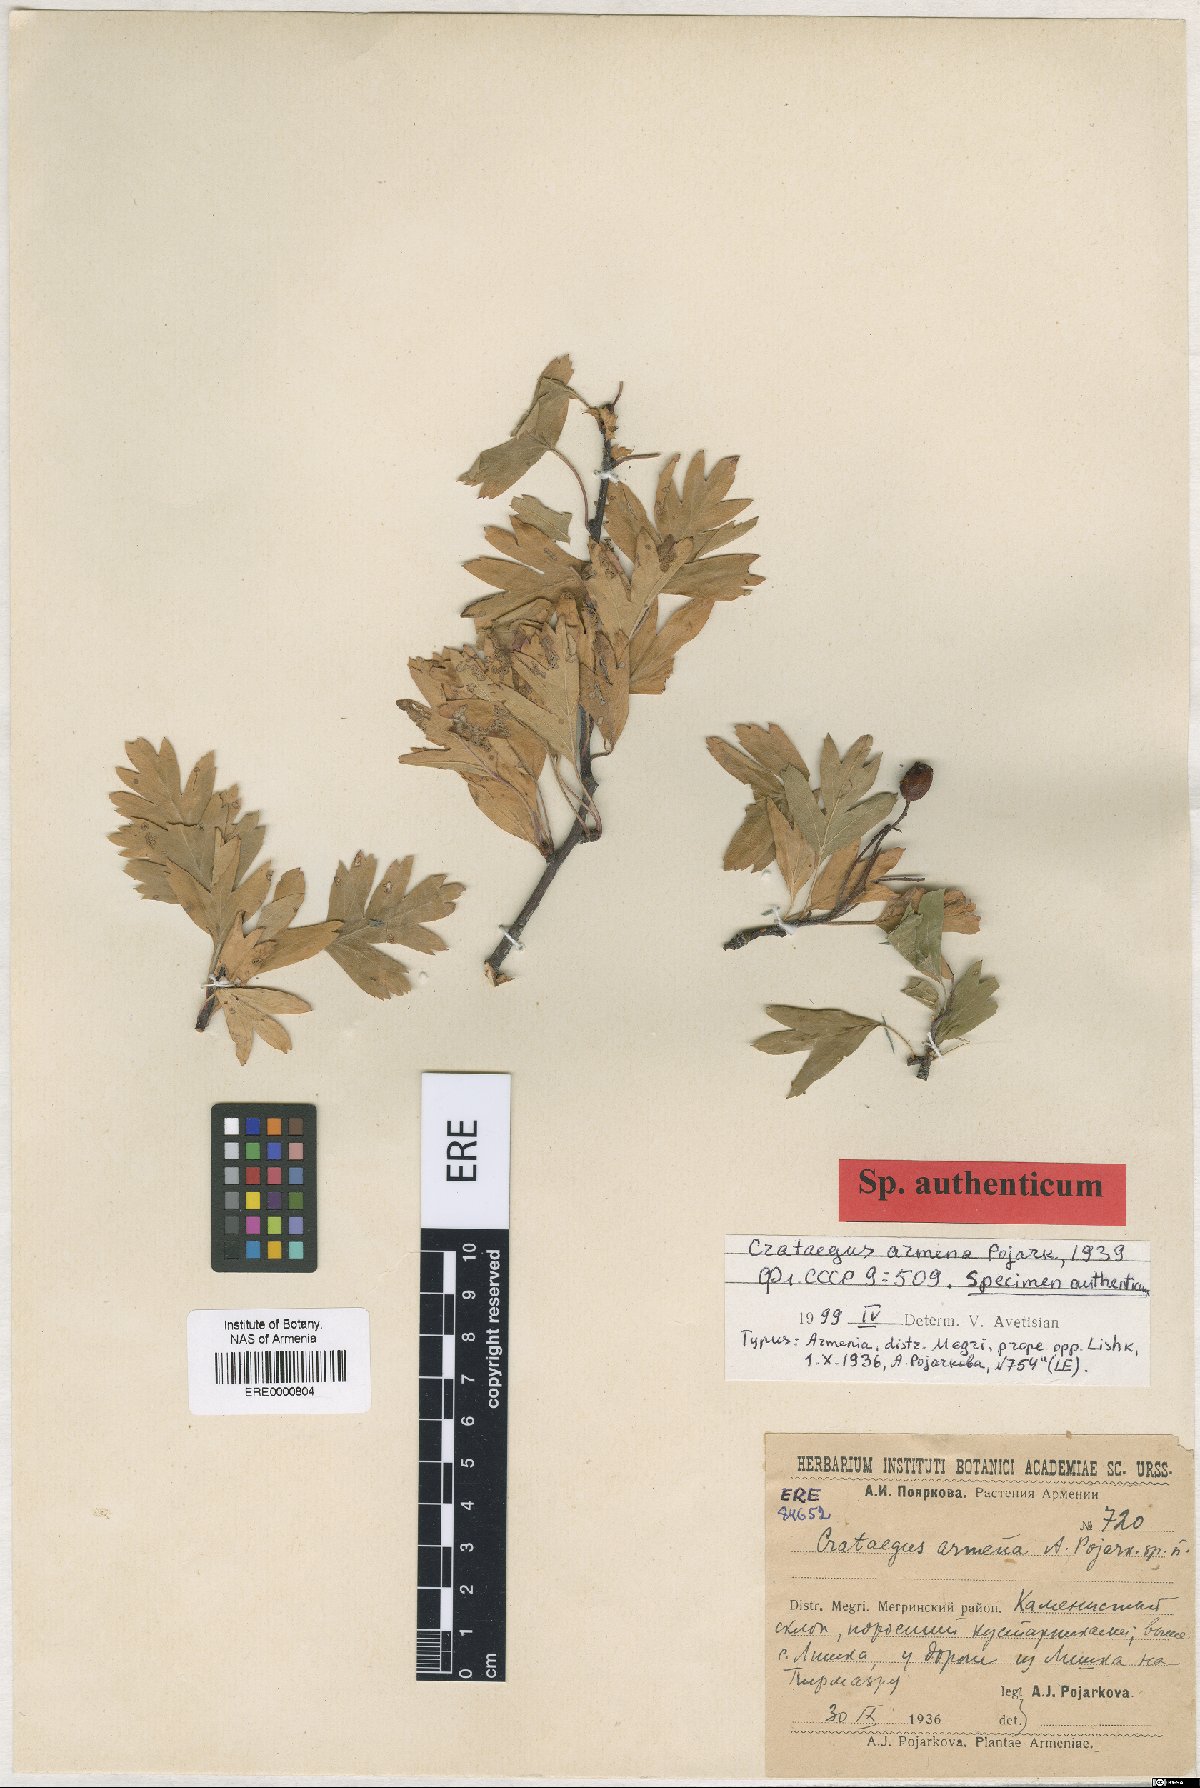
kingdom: Plantae
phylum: Tracheophyta
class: Magnoliopsida
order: Rosales
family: Rosaceae
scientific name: Rosaceae
